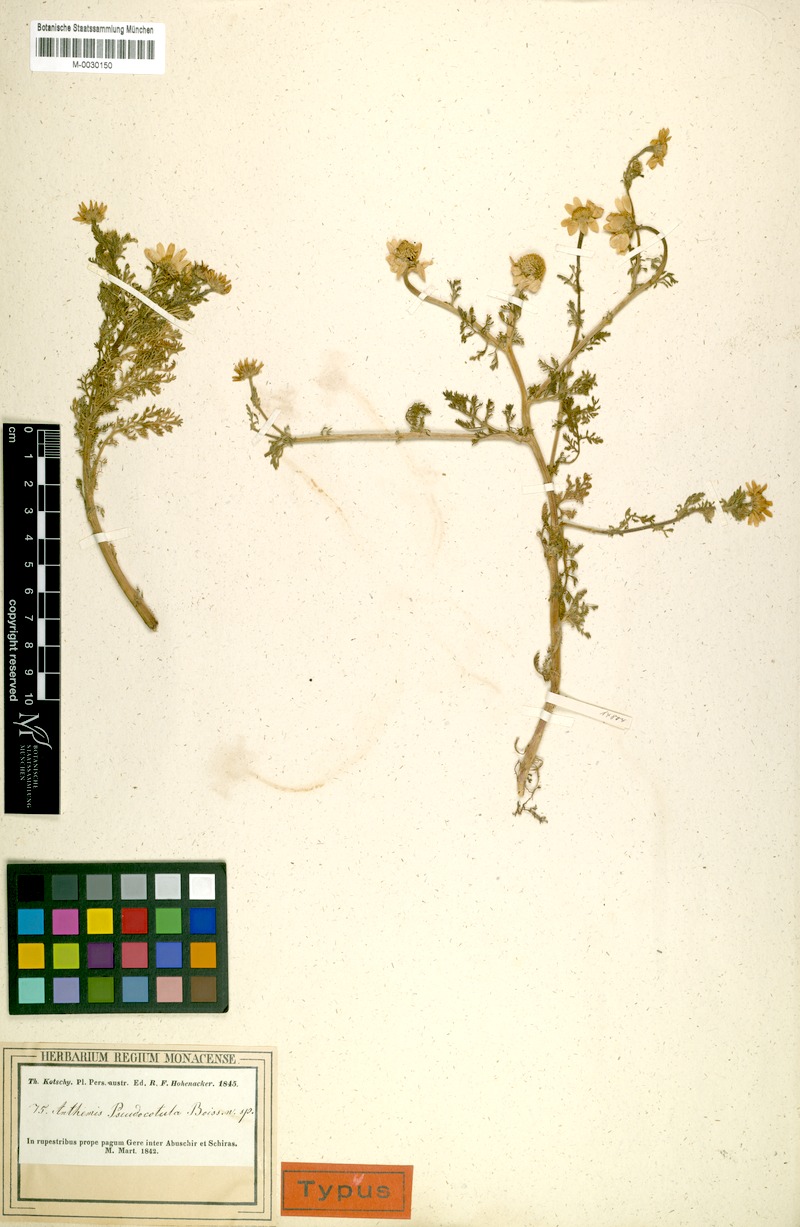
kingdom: Plantae
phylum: Tracheophyta
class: Magnoliopsida
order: Asterales
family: Asteraceae
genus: Anthemis
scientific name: Anthemis pseudocotula
